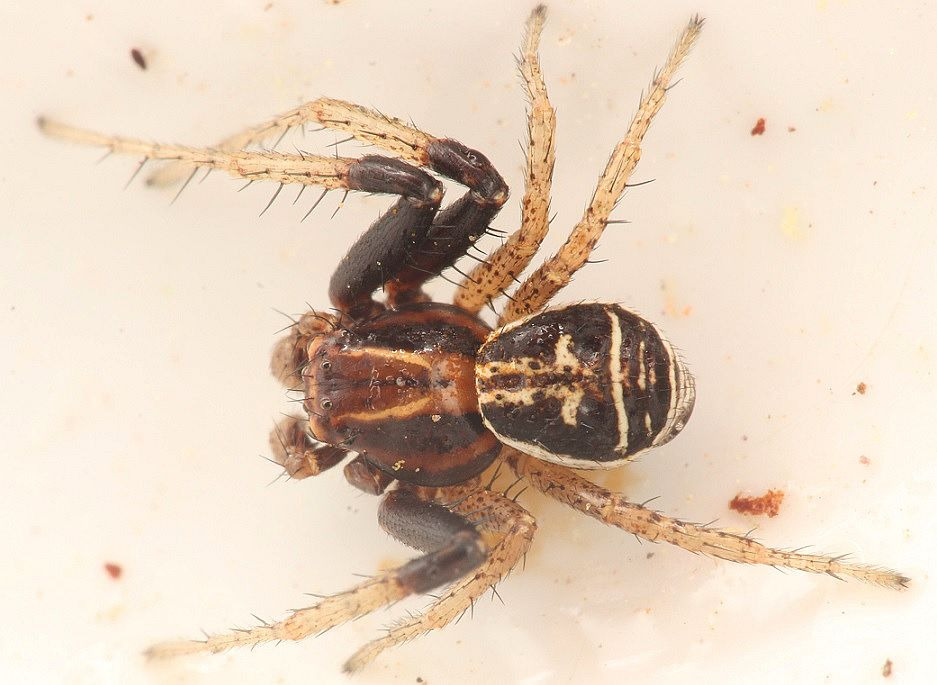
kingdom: Animalia
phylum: Arthropoda
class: Arachnida
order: Araneae
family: Thomisidae
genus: Xysticus
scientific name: Xysticus ulmi
